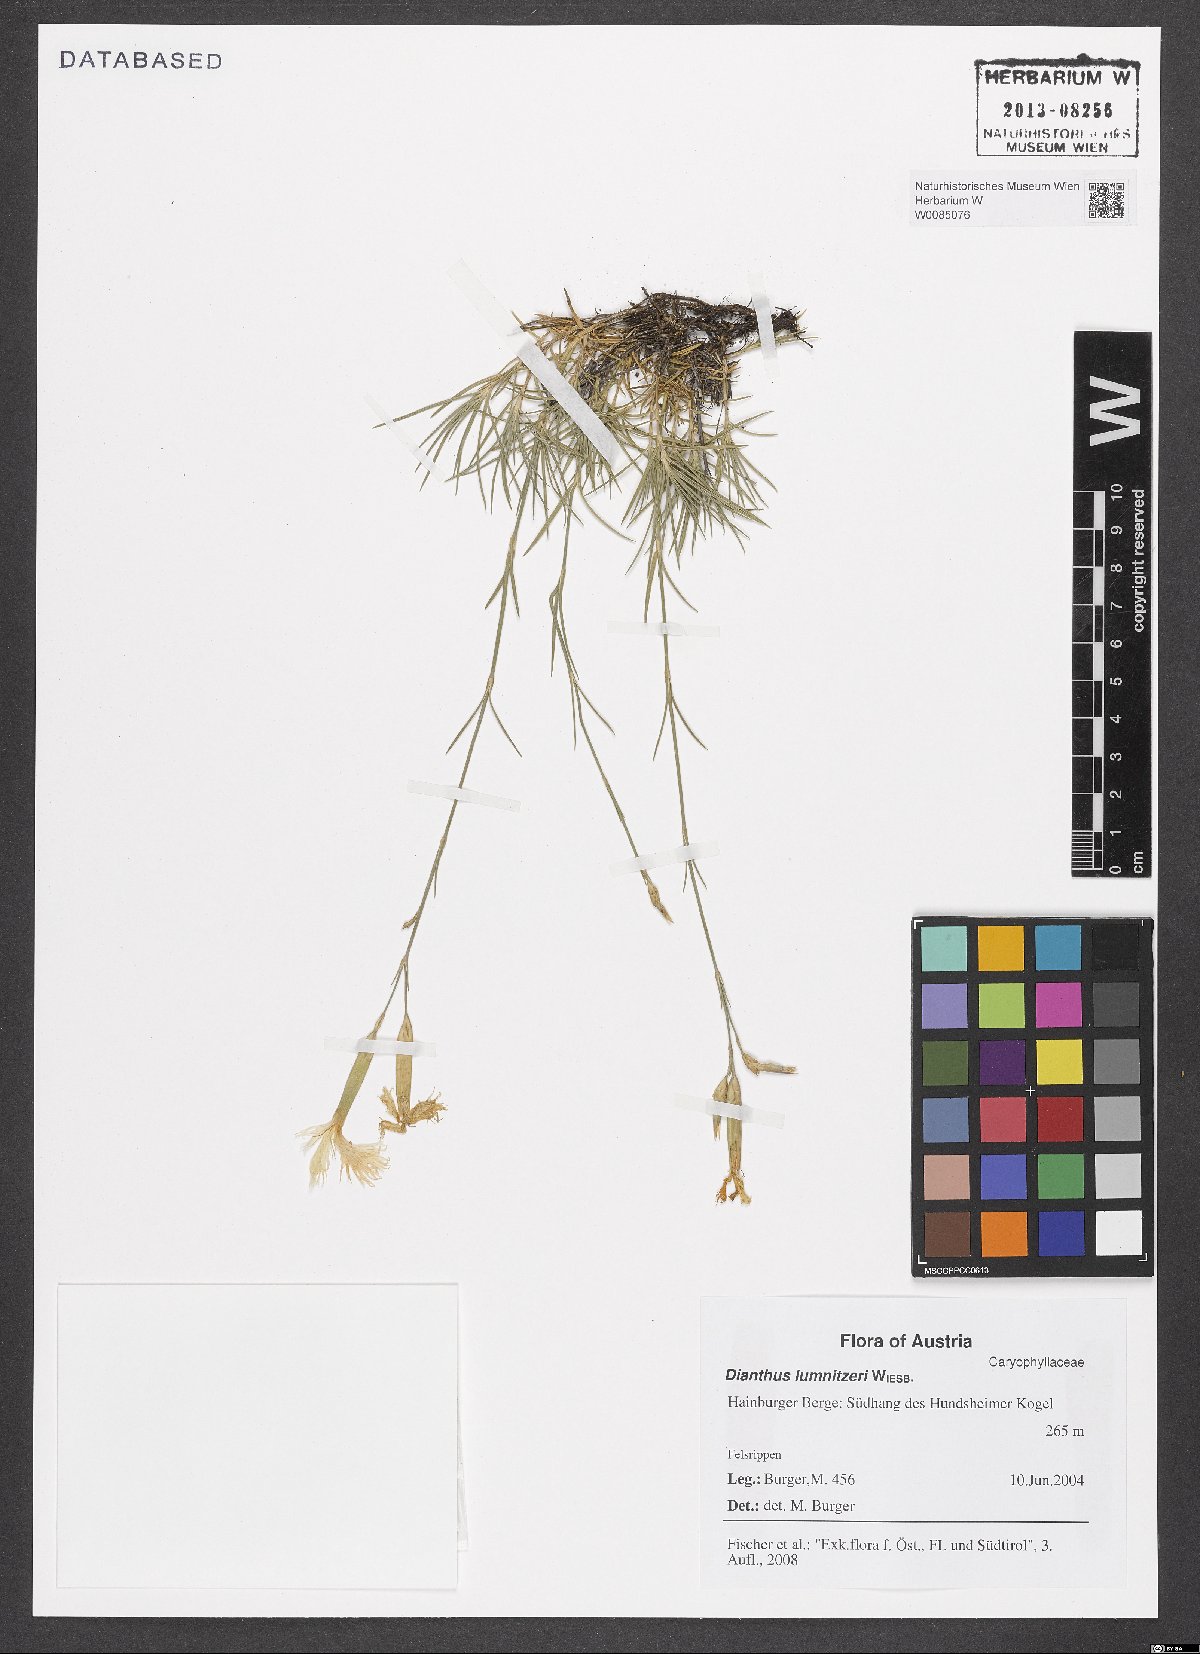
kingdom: Plantae
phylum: Tracheophyta
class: Magnoliopsida
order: Caryophyllales
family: Caryophyllaceae
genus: Dianthus
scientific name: Dianthus praecox
